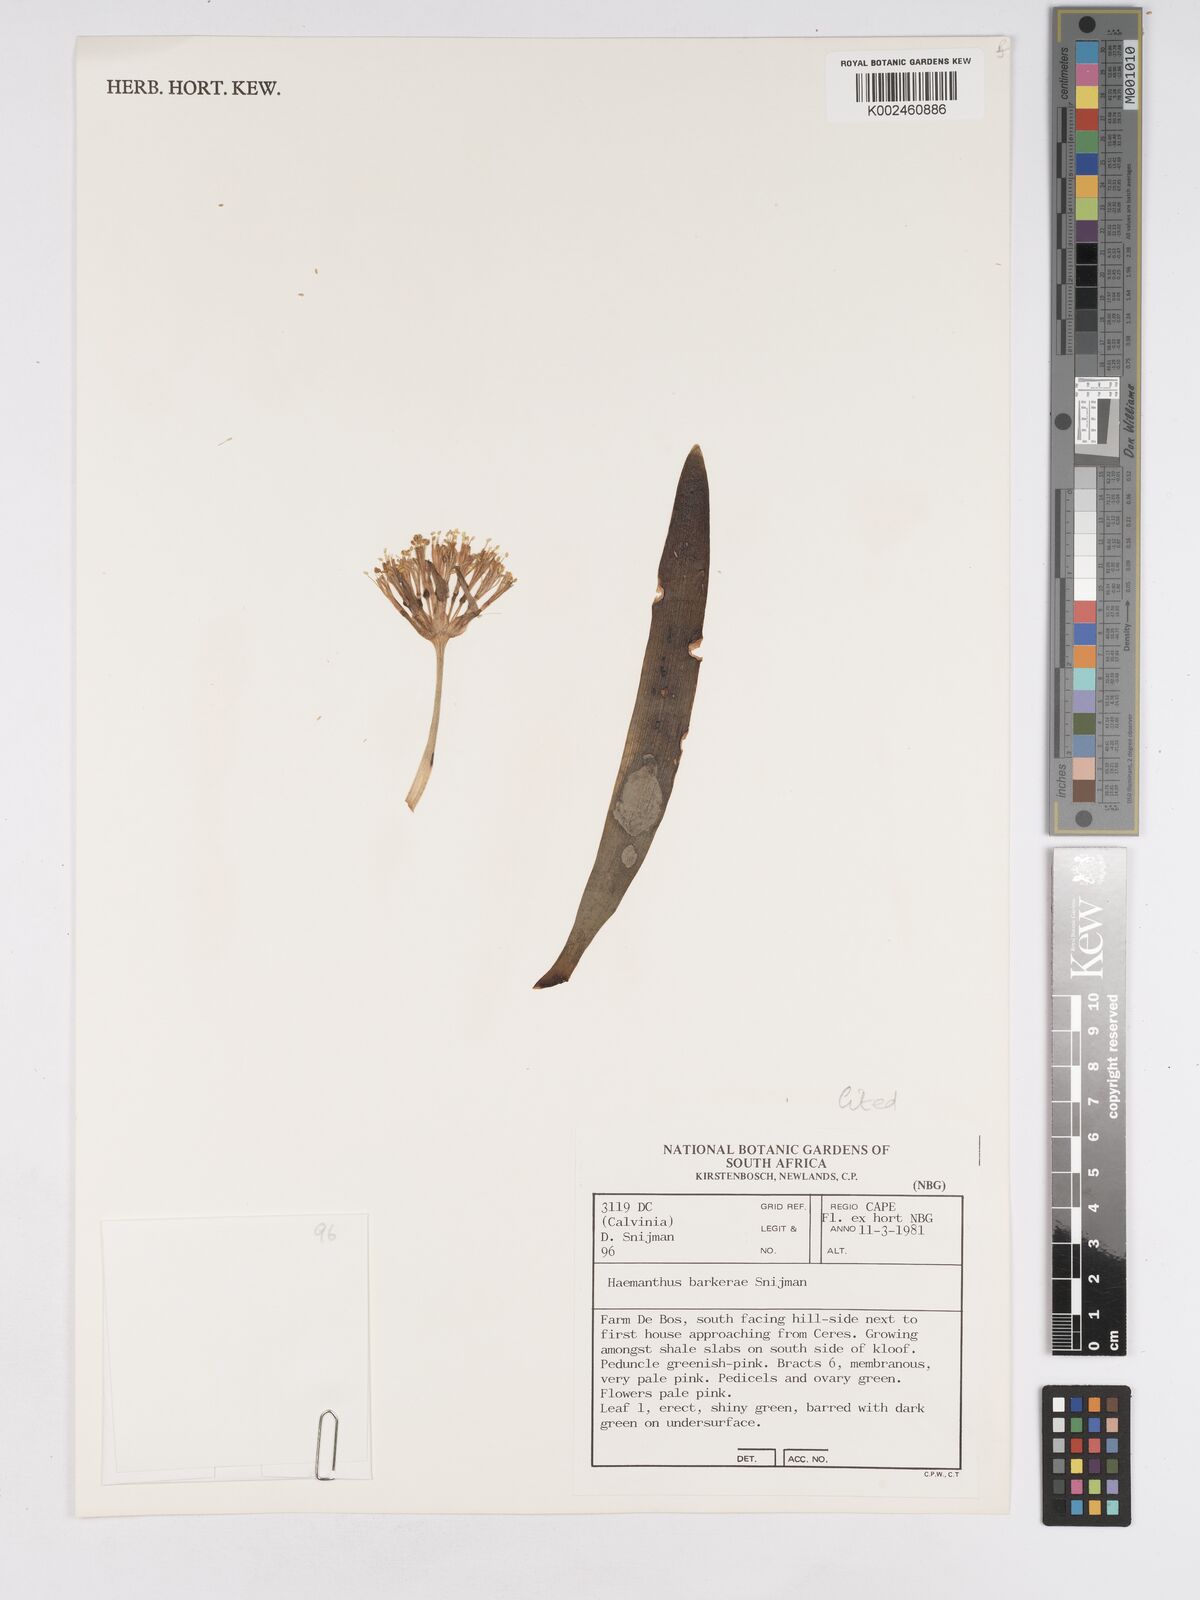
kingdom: Plantae
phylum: Tracheophyta
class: Liliopsida
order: Asparagales
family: Amaryllidaceae
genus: Haemanthus
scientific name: Haemanthus barkerae
